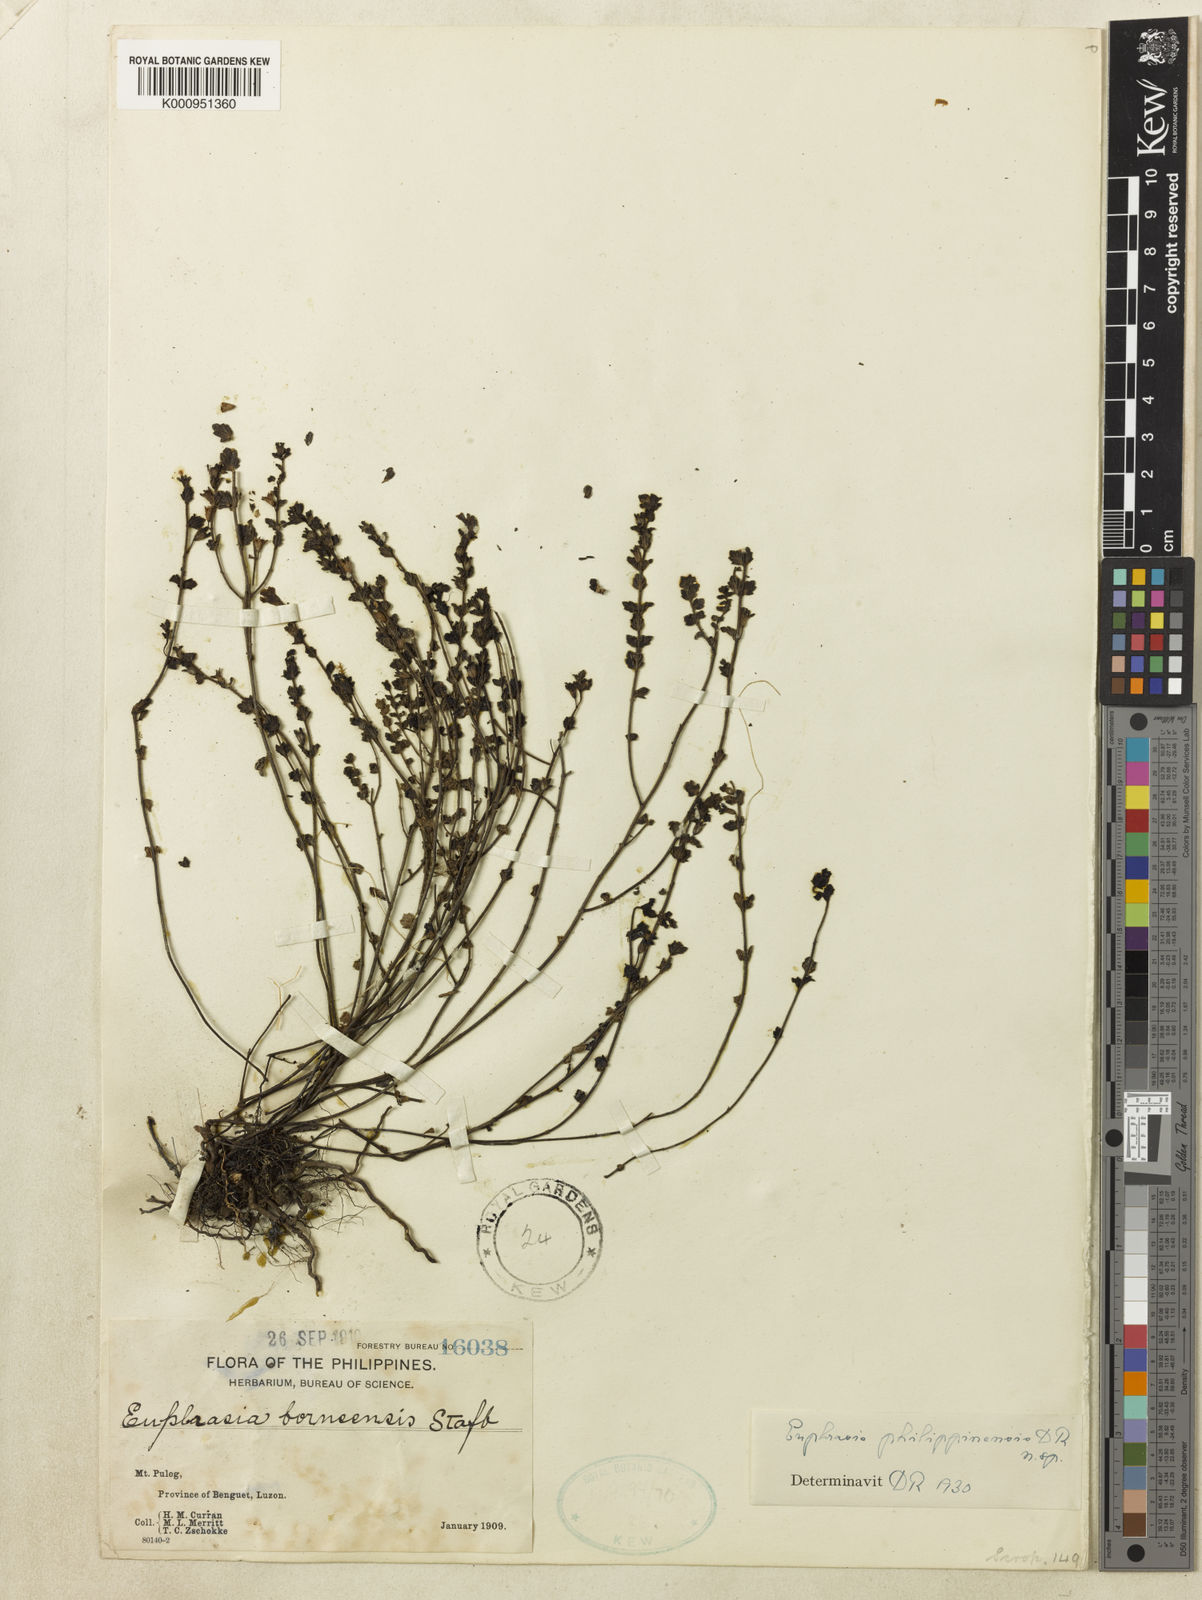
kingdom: Plantae
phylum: Tracheophyta
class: Magnoliopsida
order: Lamiales
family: Orobanchaceae
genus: Euphrasia
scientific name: Euphrasia philippinensis
